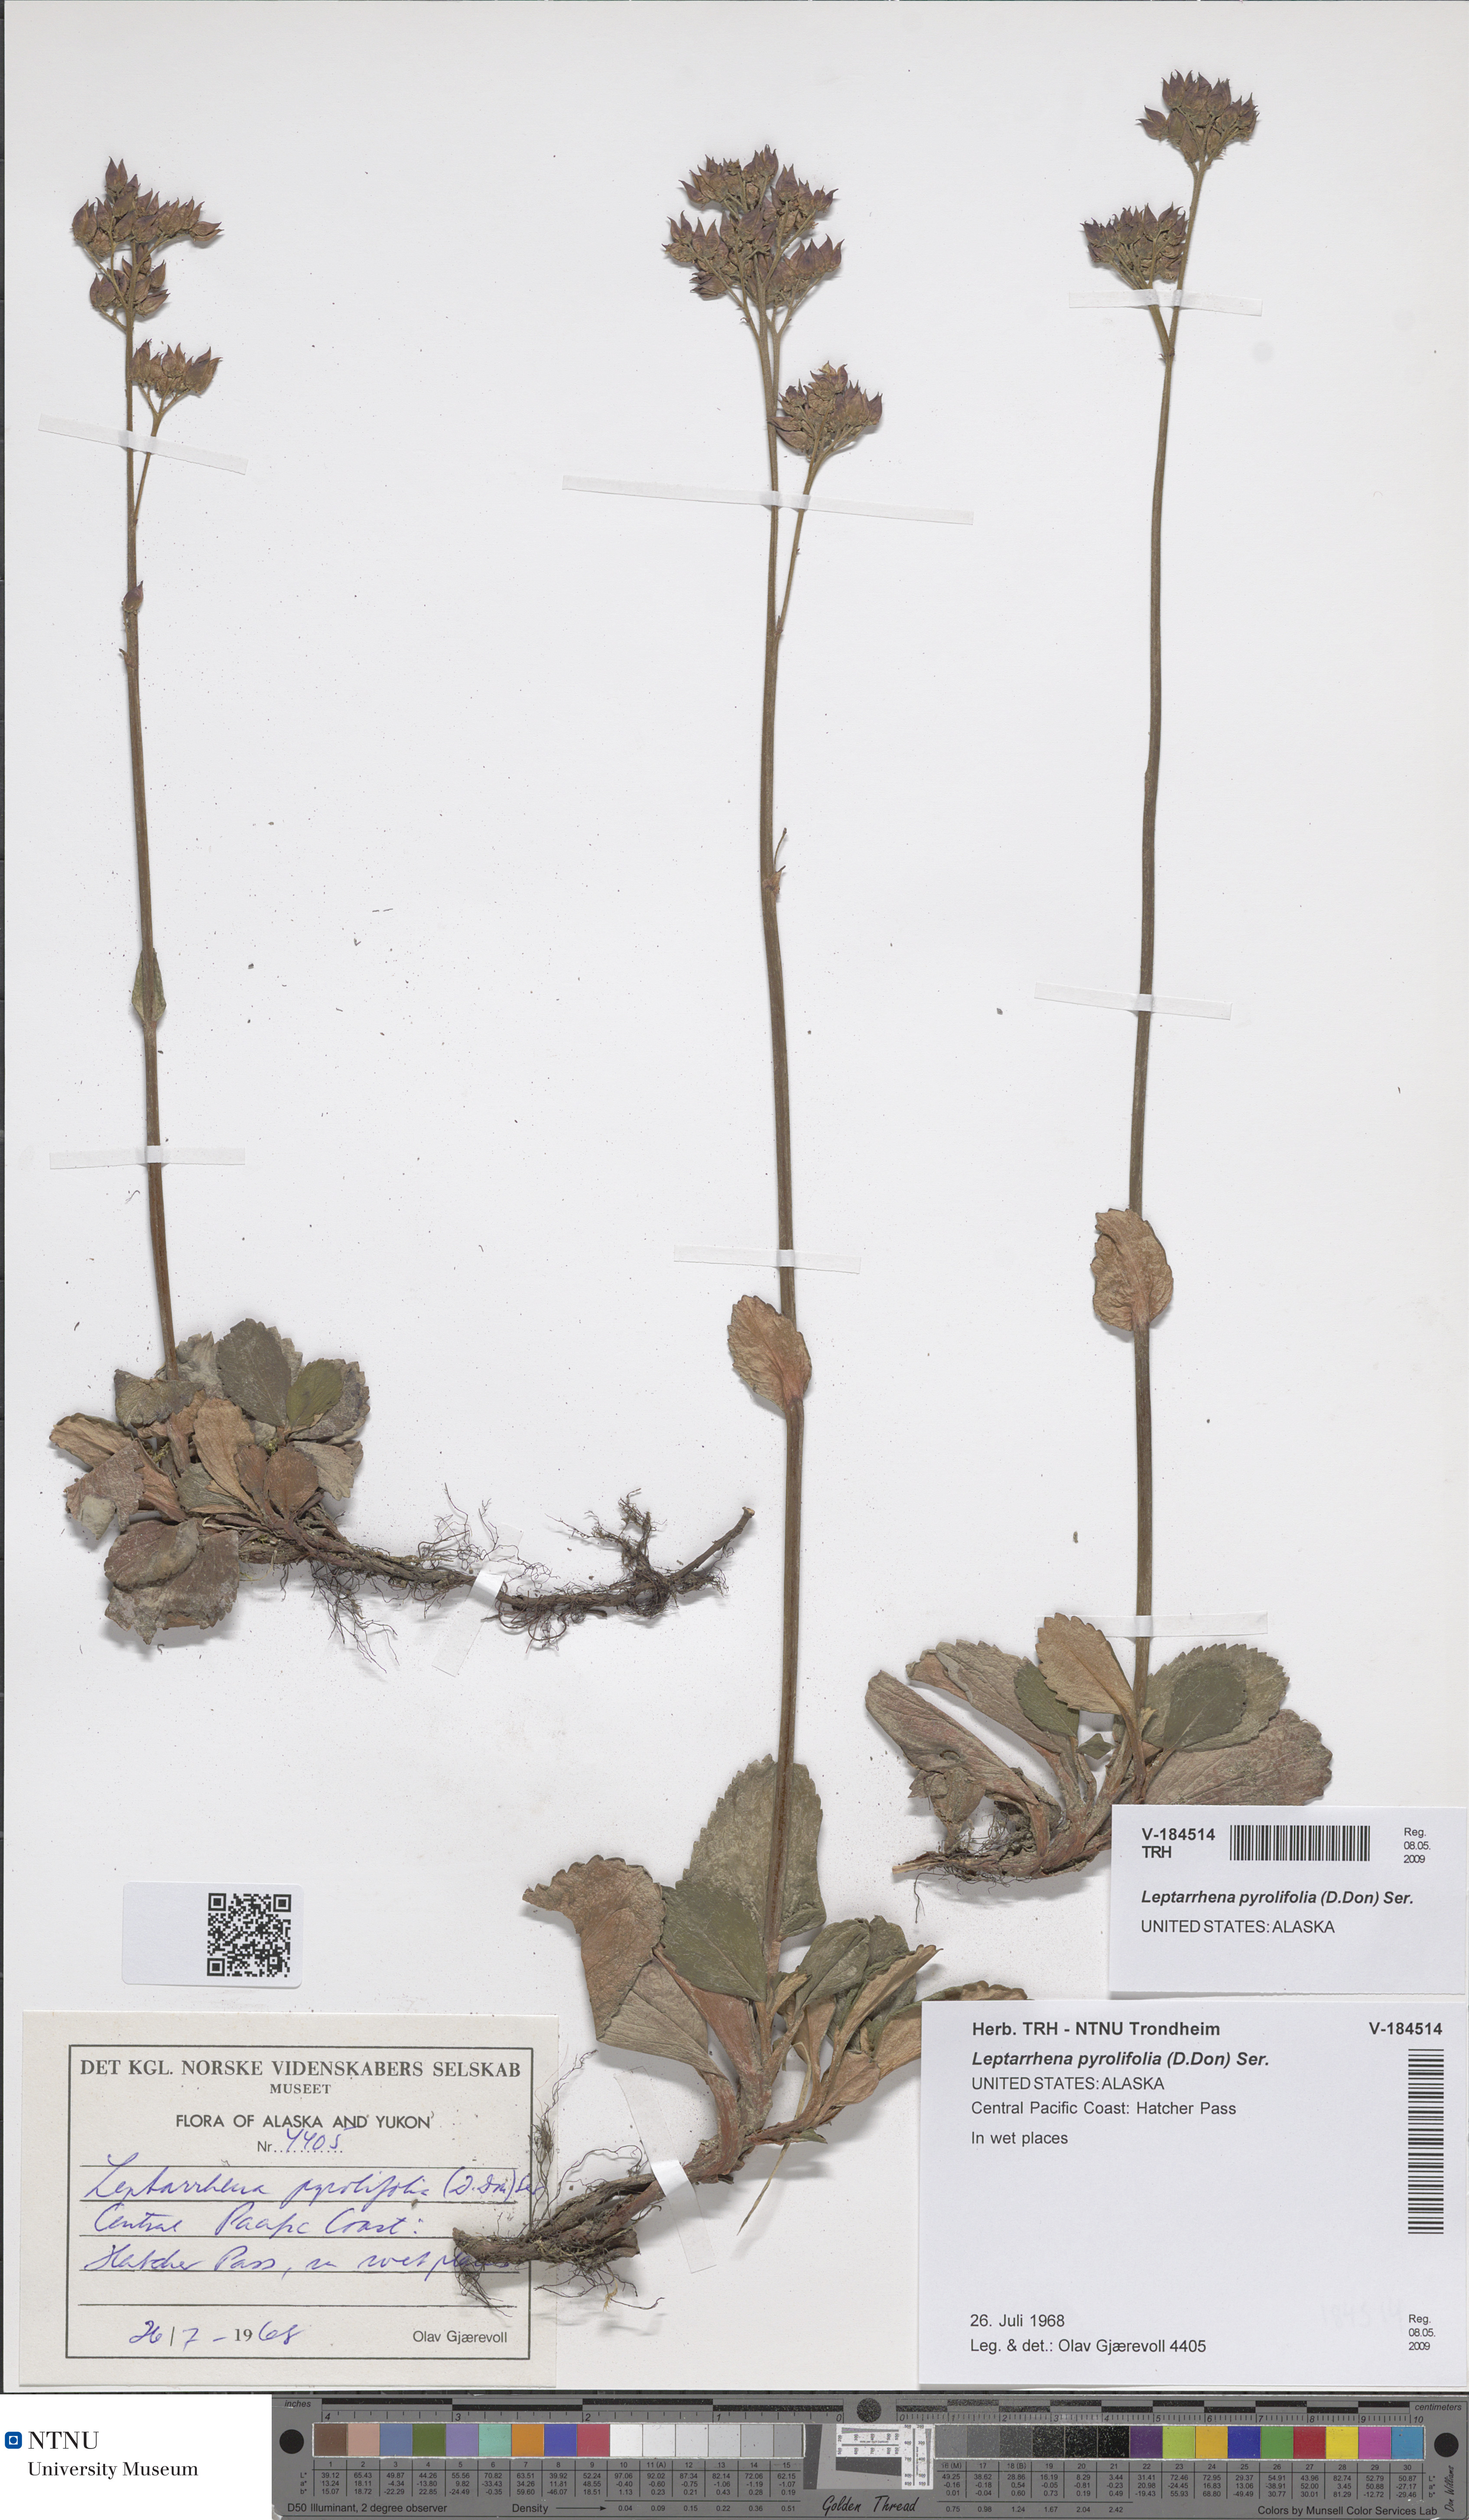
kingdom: Plantae
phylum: Tracheophyta
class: Magnoliopsida
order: Saxifragales
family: Saxifragaceae
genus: Leptarrhena
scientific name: Leptarrhena pyrolifolia
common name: Leatherleaf-saxifrage
